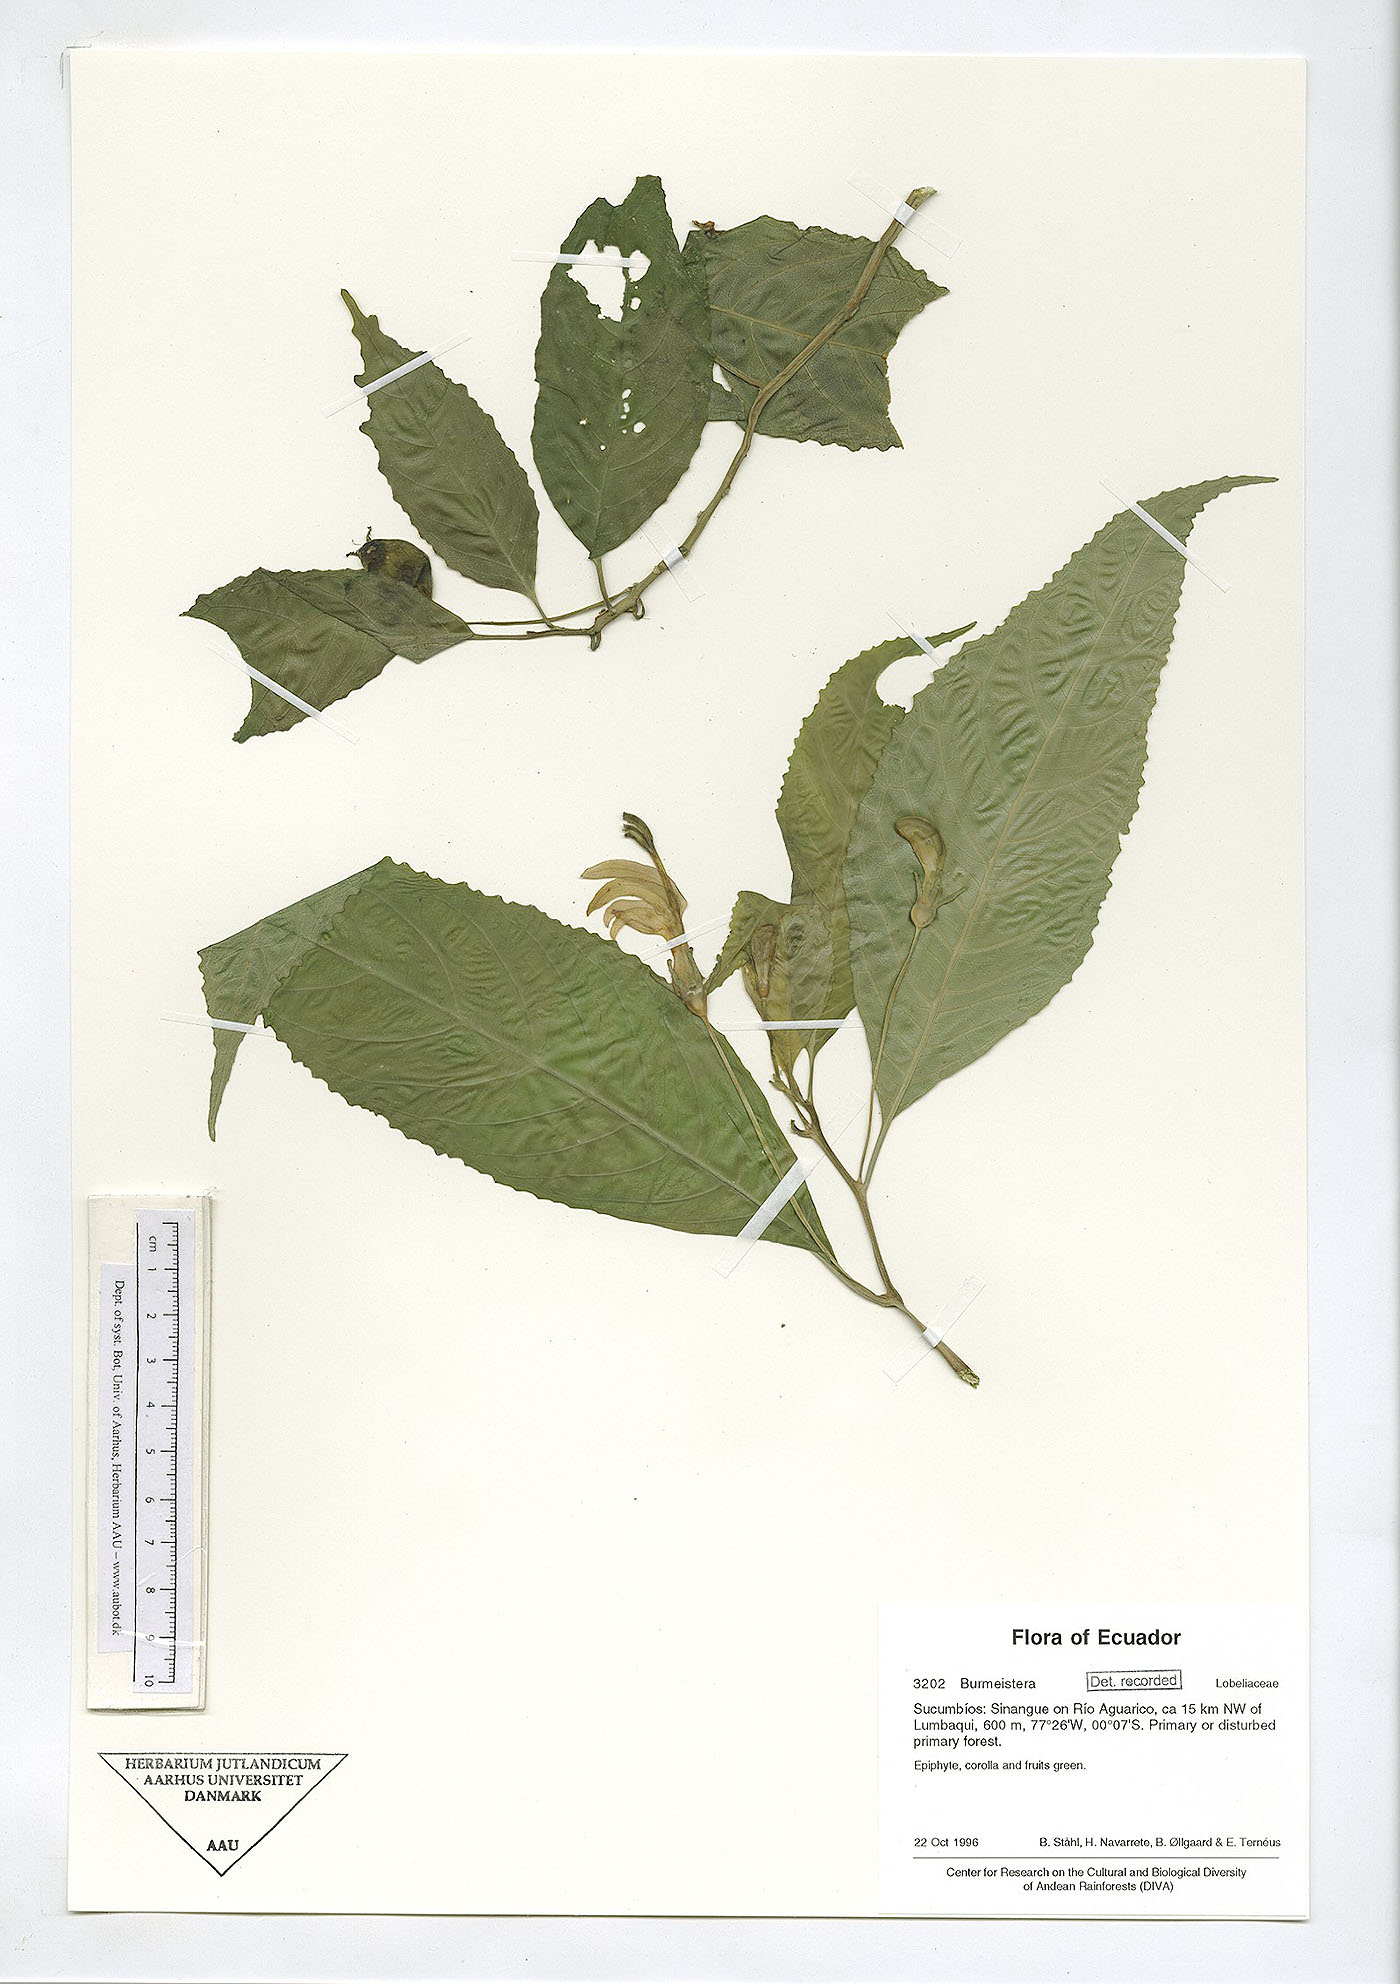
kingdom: Plantae
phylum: Tracheophyta
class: Magnoliopsida
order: Asterales
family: Campanulaceae
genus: Burmeistera
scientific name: Burmeistera
